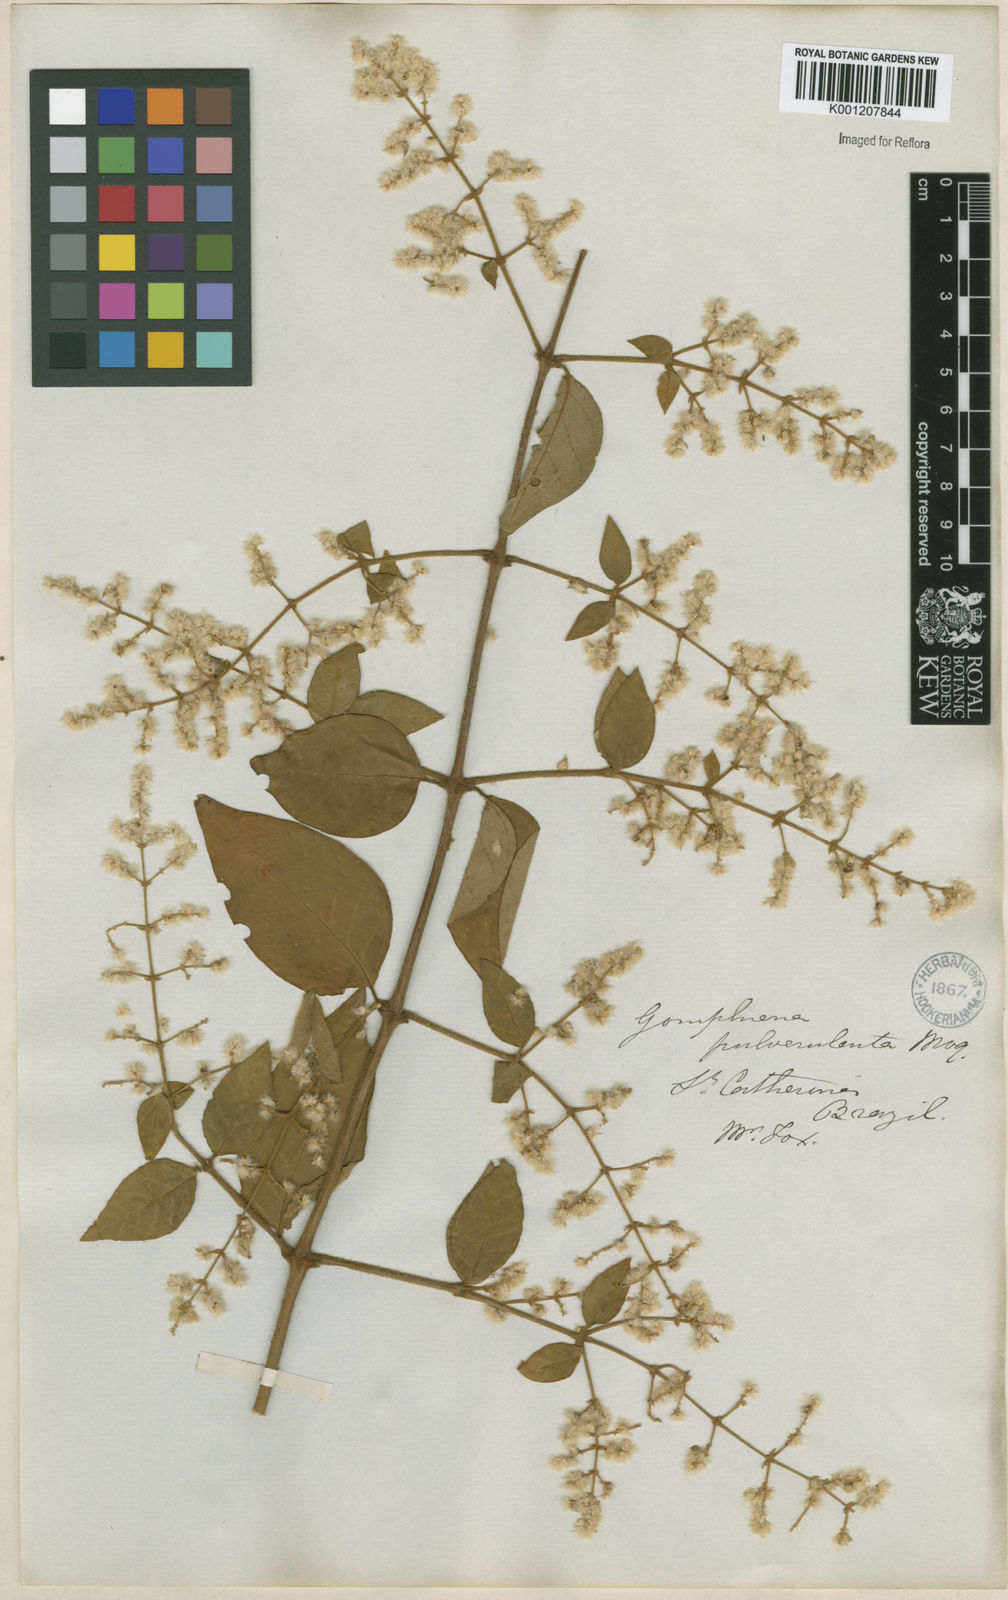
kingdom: Plantae
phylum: Tracheophyta
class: Magnoliopsida
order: Caryophyllales
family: Amaranthaceae
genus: Hebanthe
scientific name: Hebanthe pulverulenta
